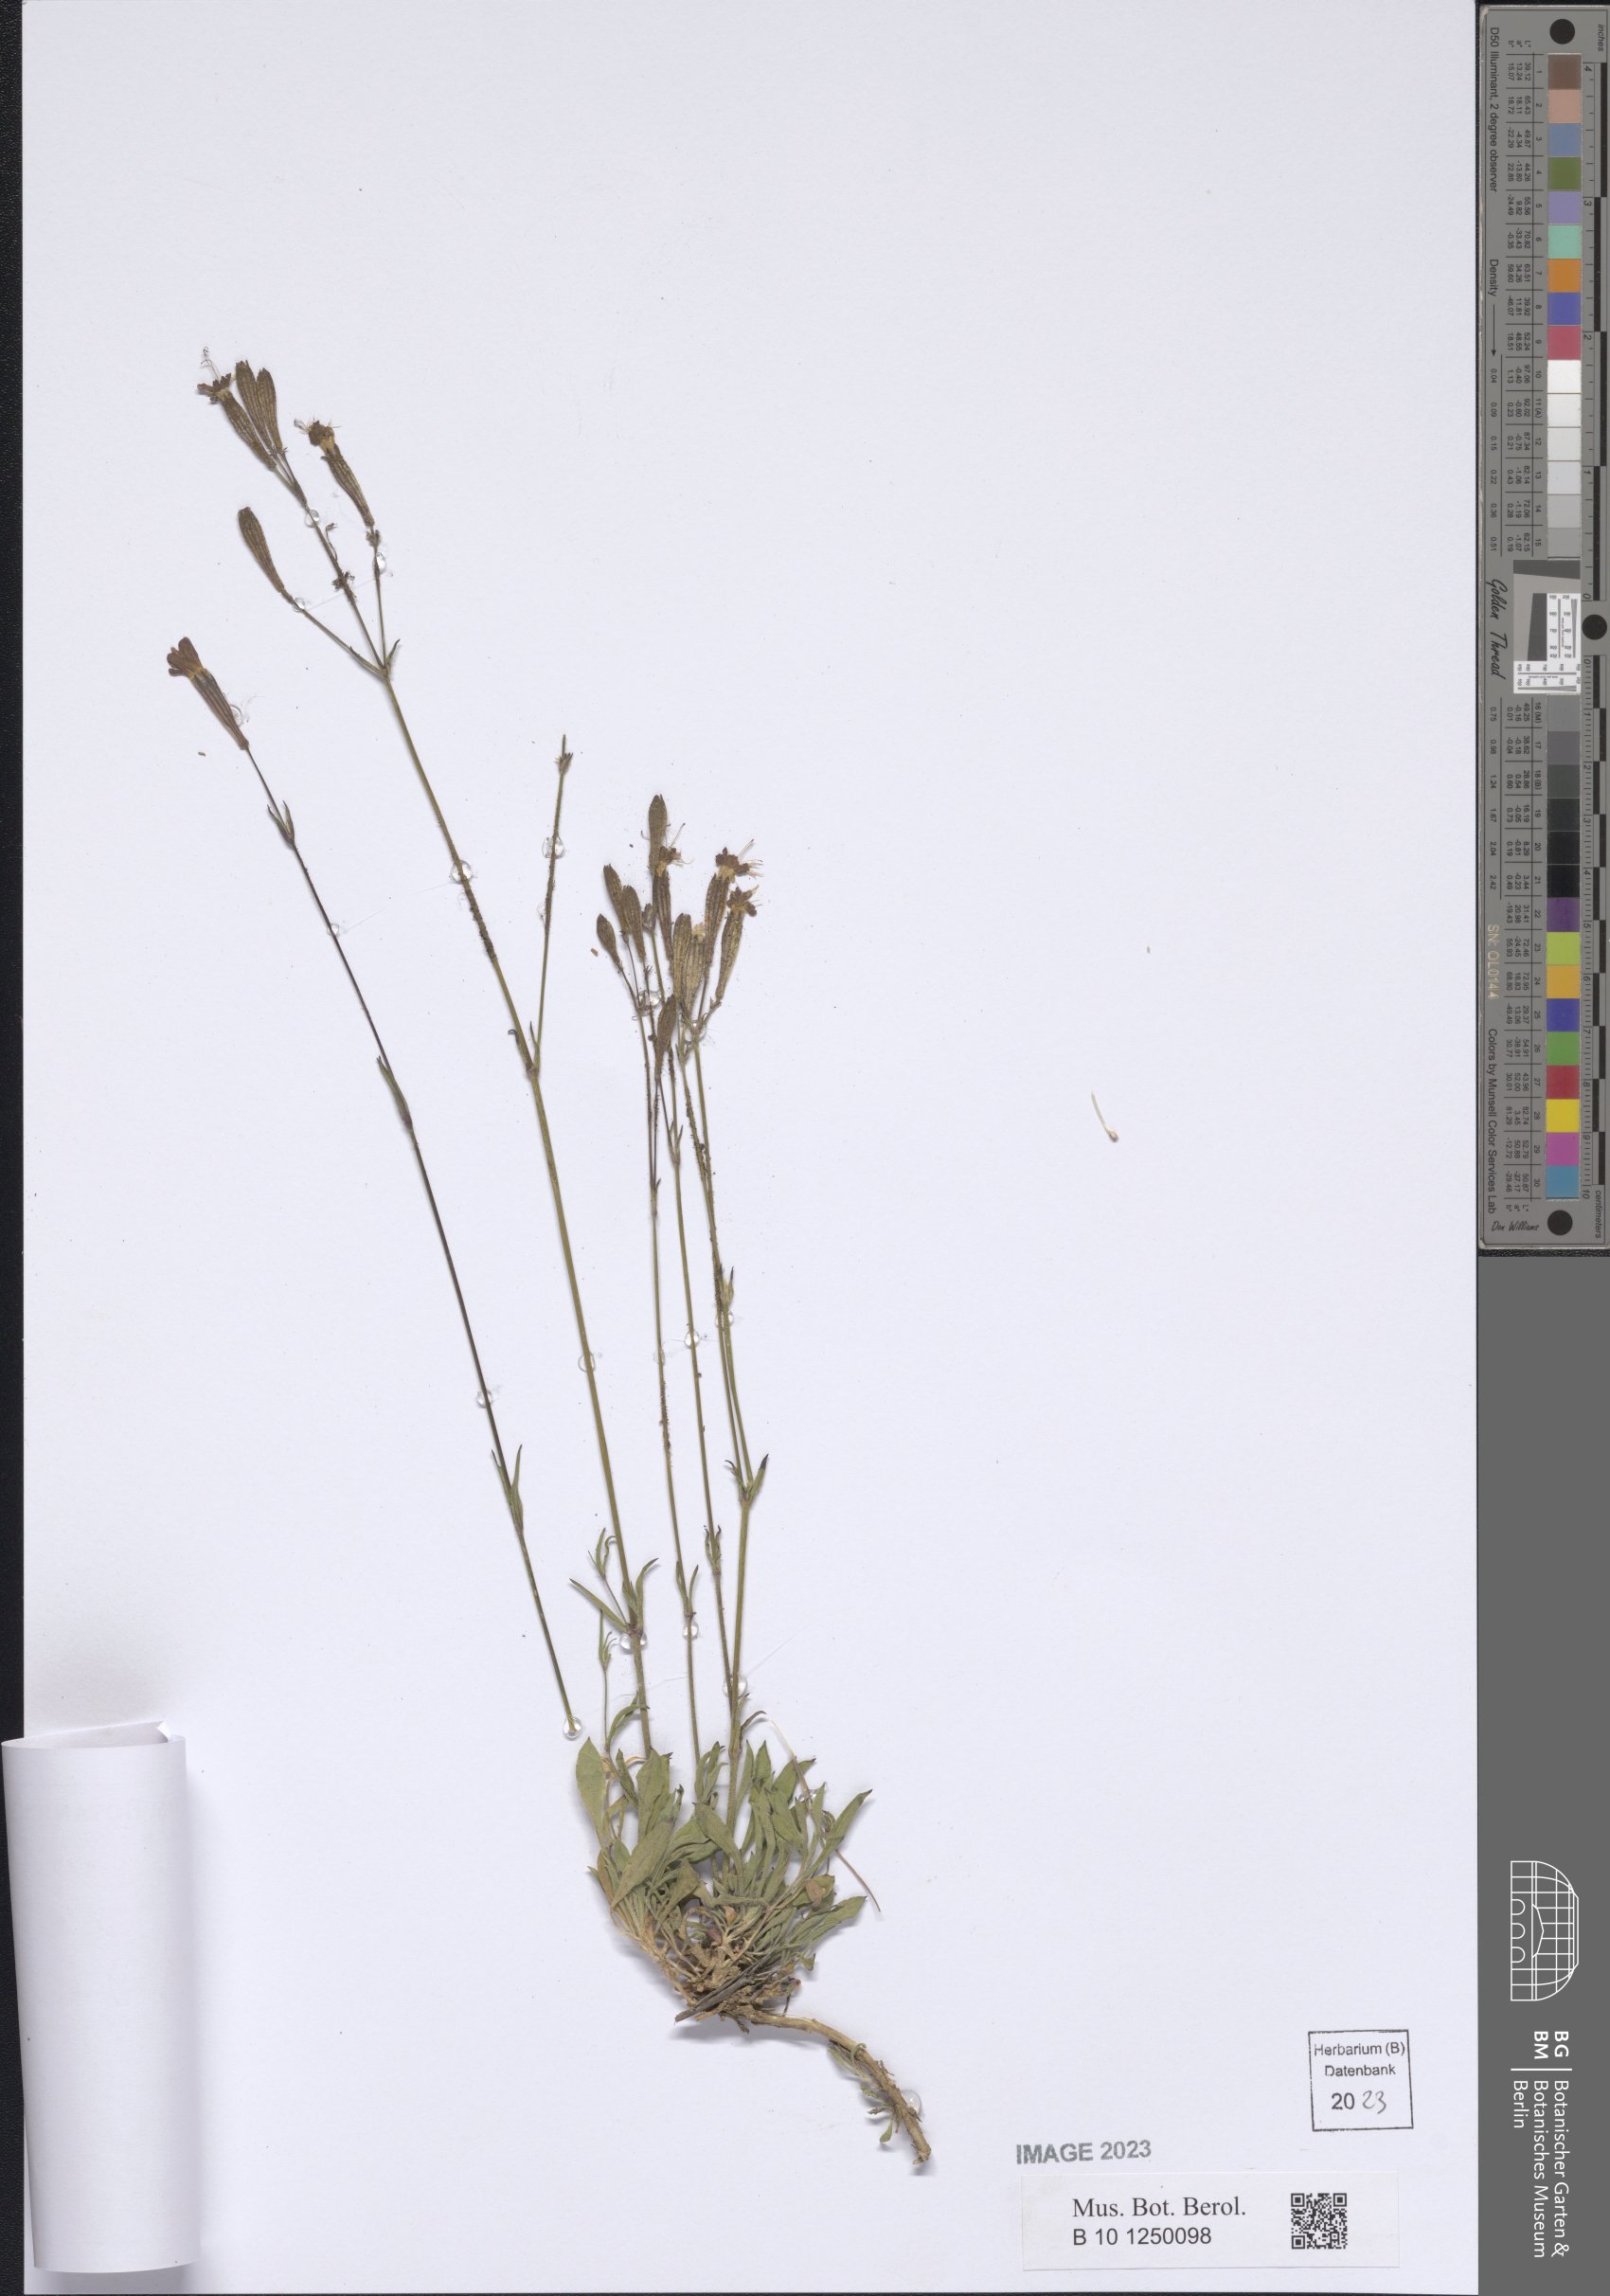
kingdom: Plantae
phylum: Tracheophyta
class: Magnoliopsida
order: Caryophyllales
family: Caryophyllaceae
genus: Silene
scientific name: Silene italica
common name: Italian catchfly
